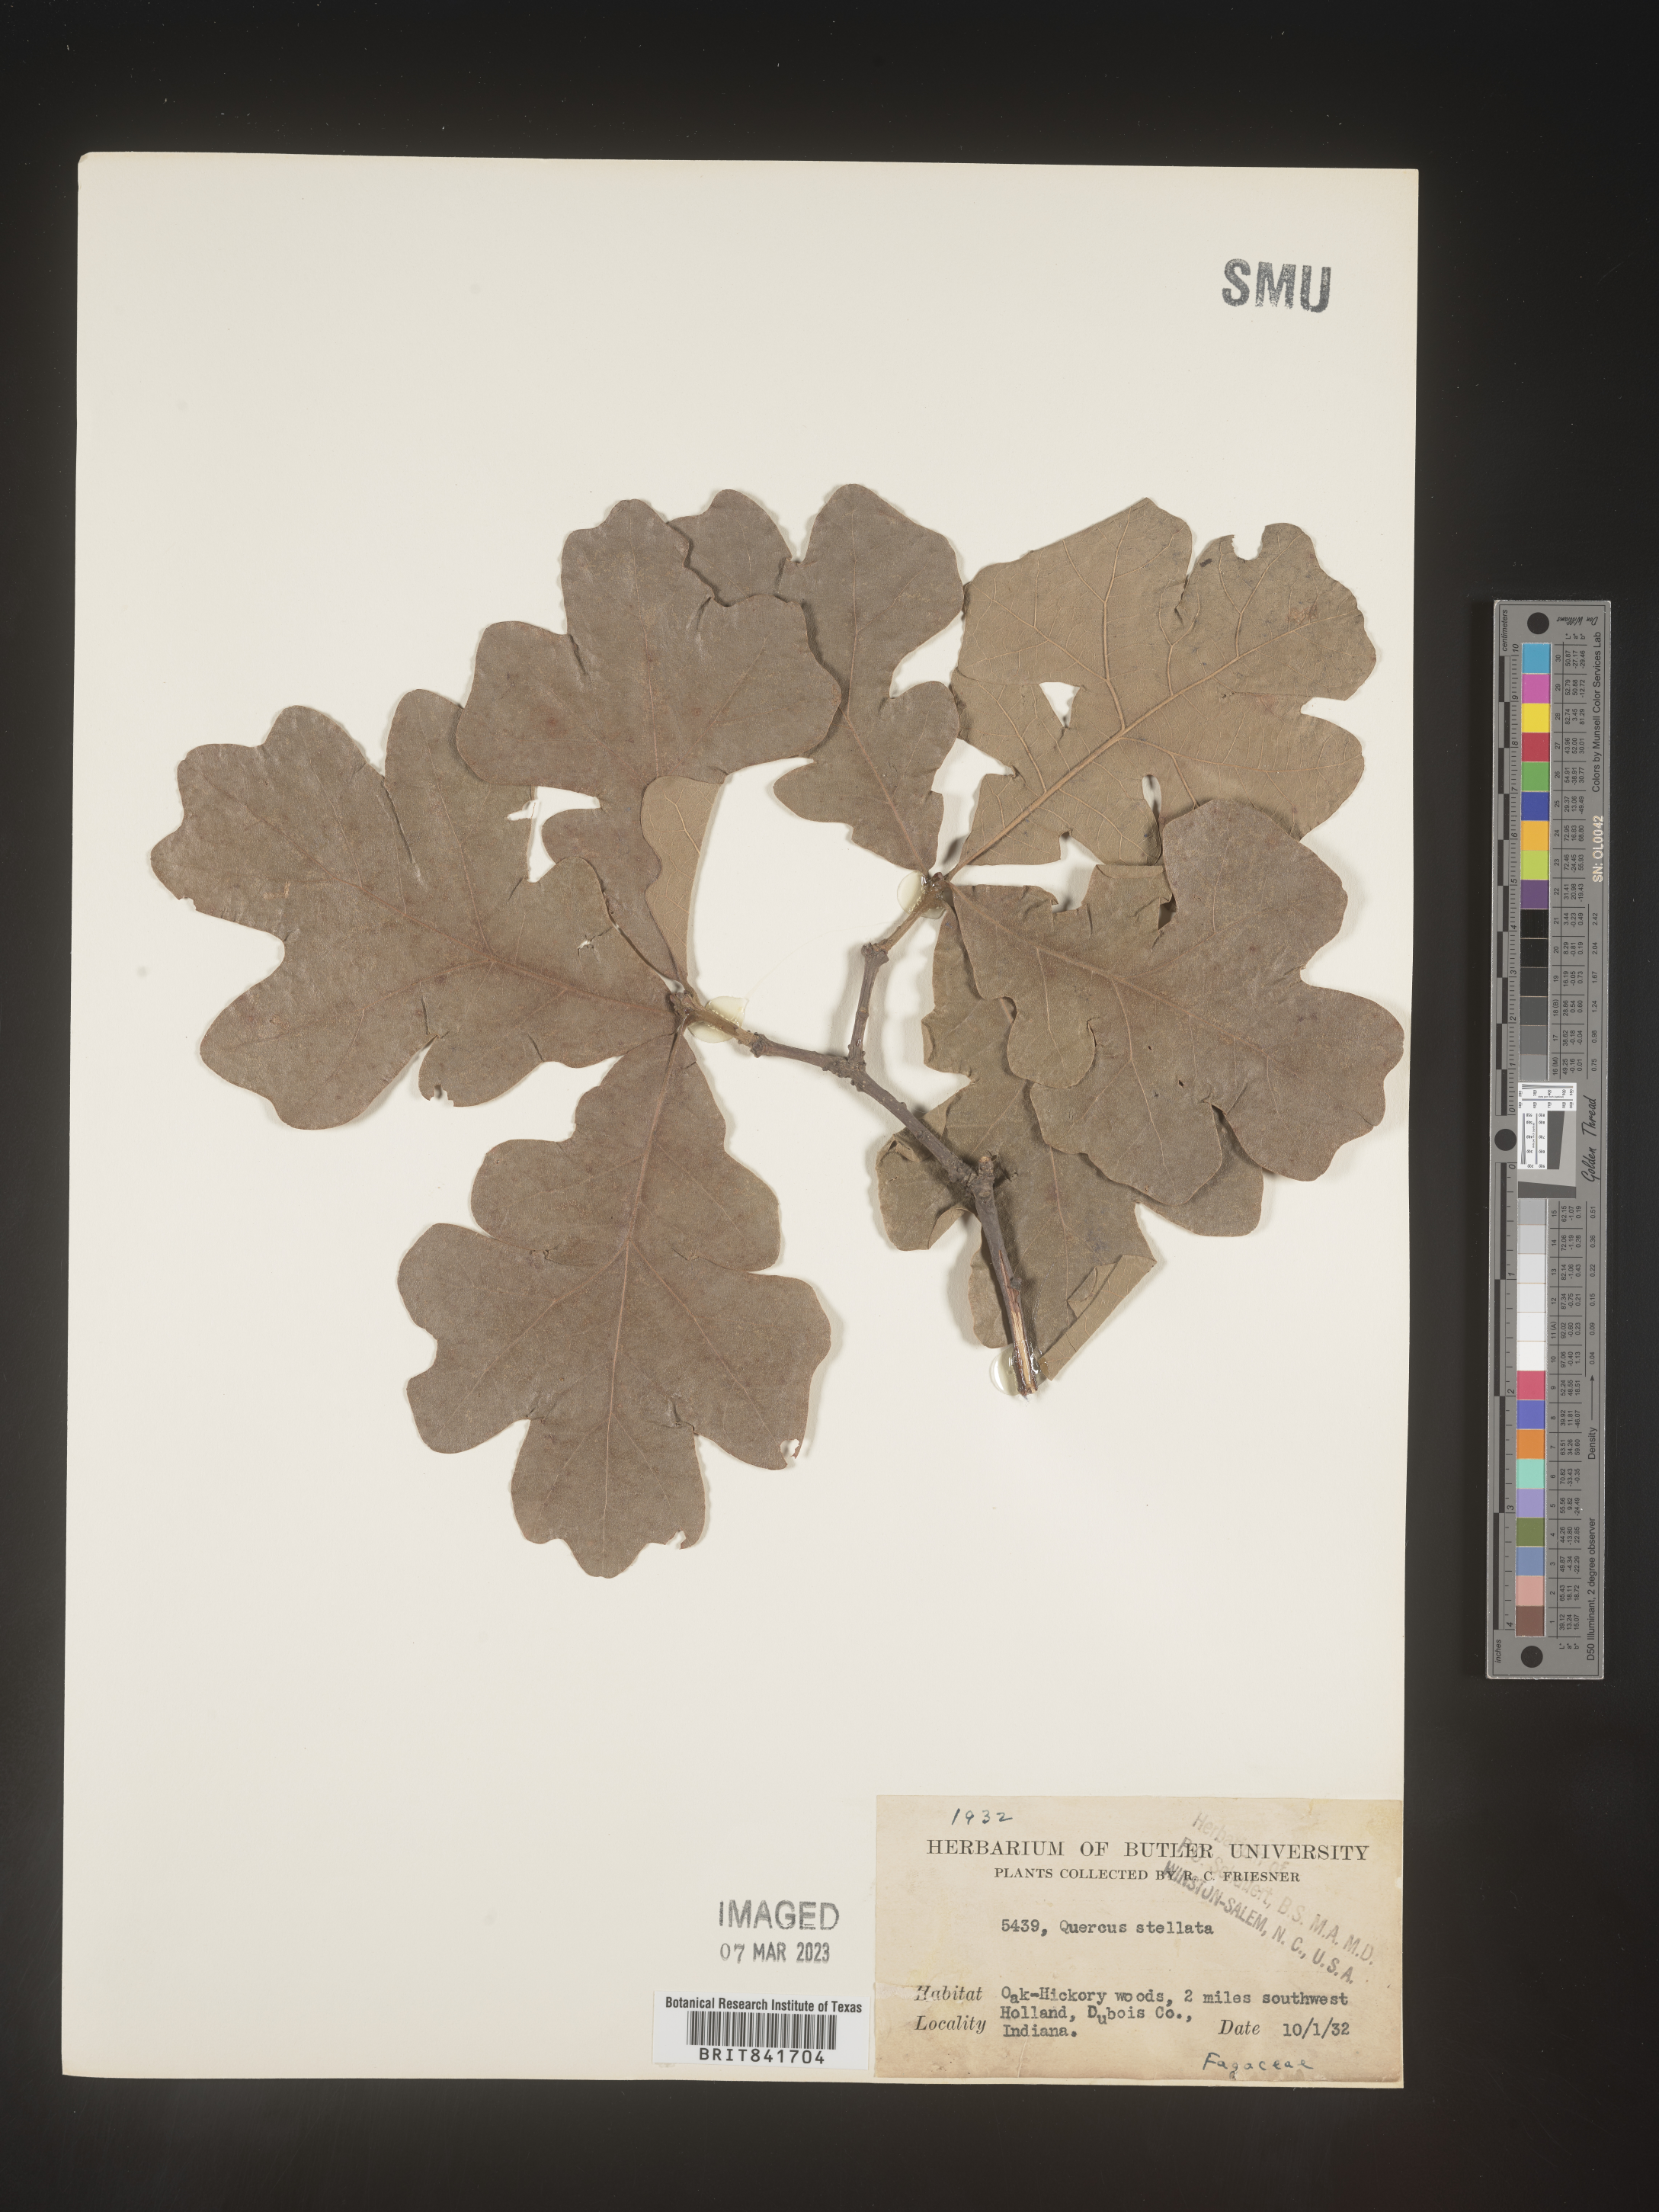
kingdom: Plantae
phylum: Tracheophyta
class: Magnoliopsida
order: Fagales
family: Fagaceae
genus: Quercus
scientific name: Quercus stellata
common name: Post oak
